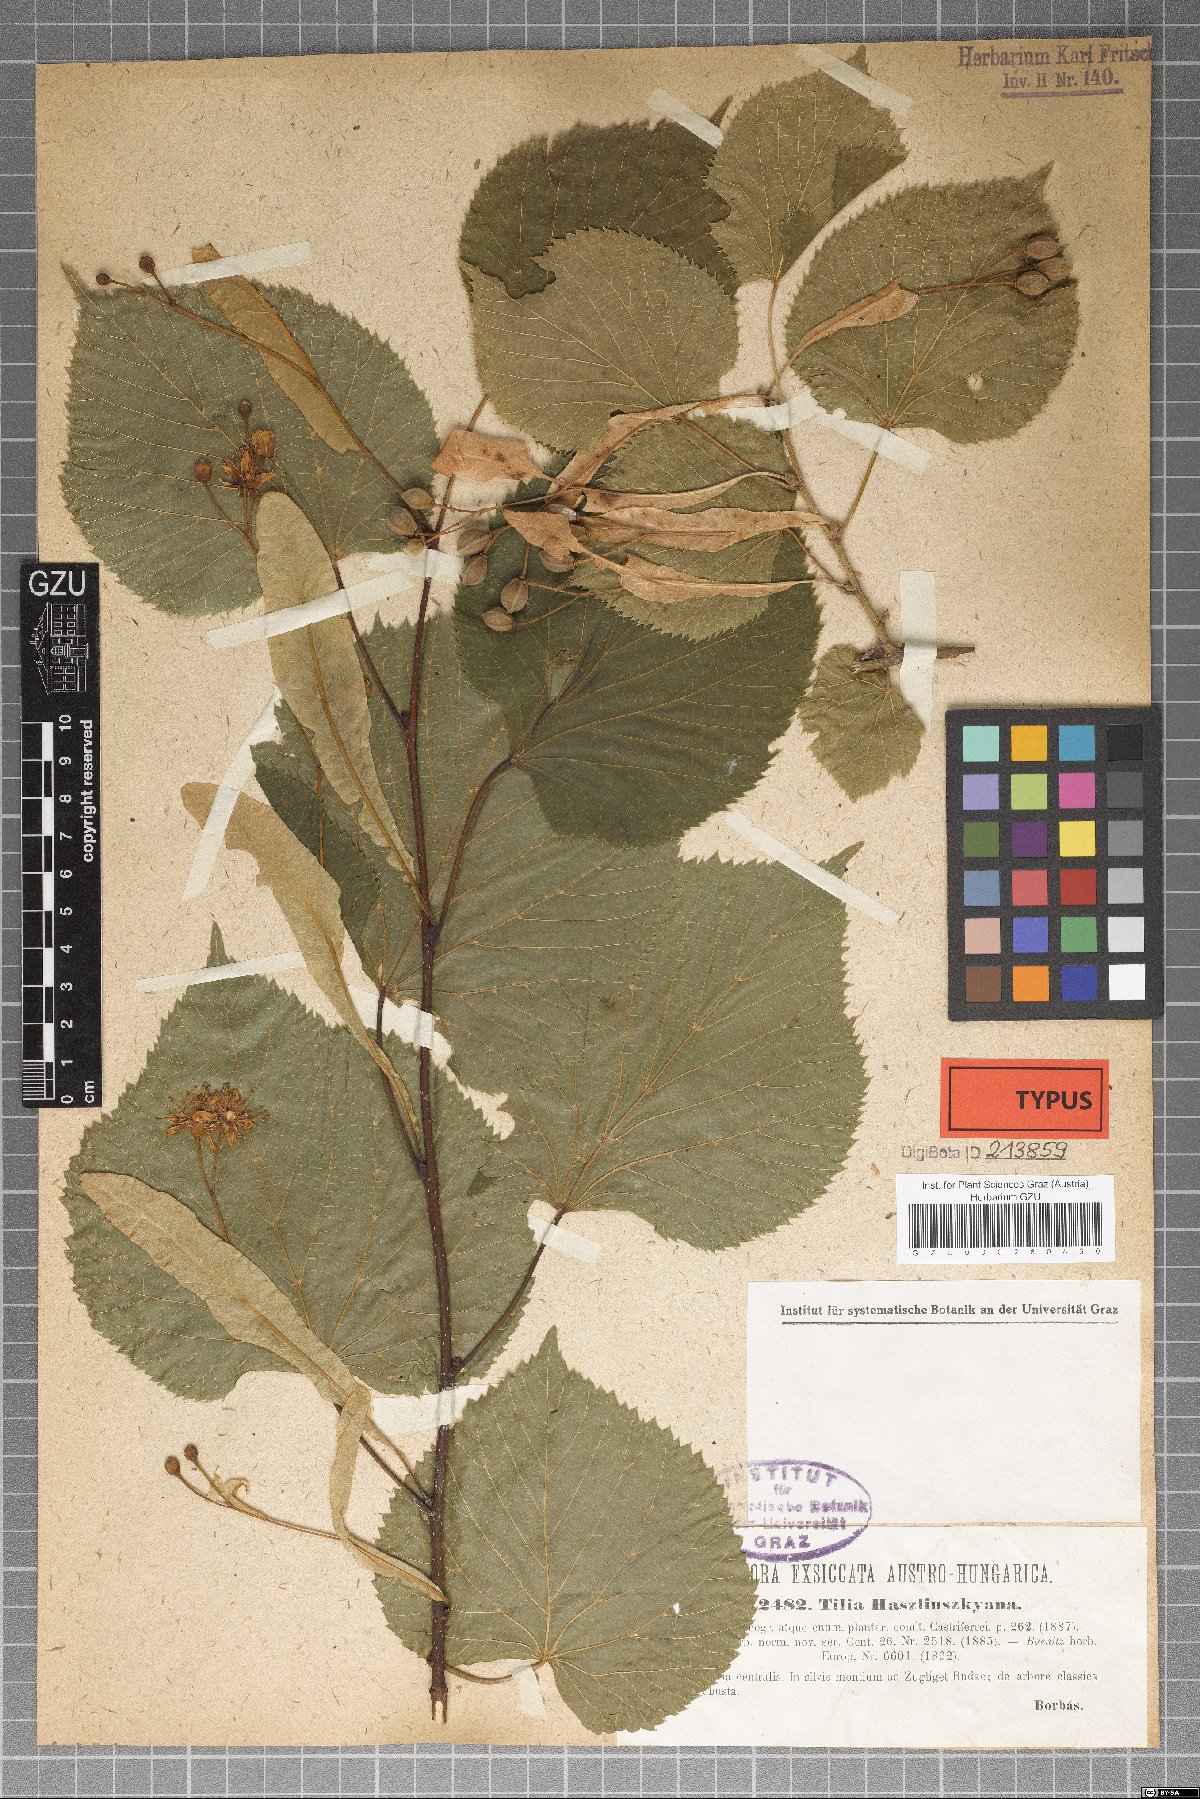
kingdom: Plantae
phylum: Tracheophyta
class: Magnoliopsida
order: Malvales
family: Malvaceae
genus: Tilia
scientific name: Tilia platyphyllos
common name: Large-leaved lime
